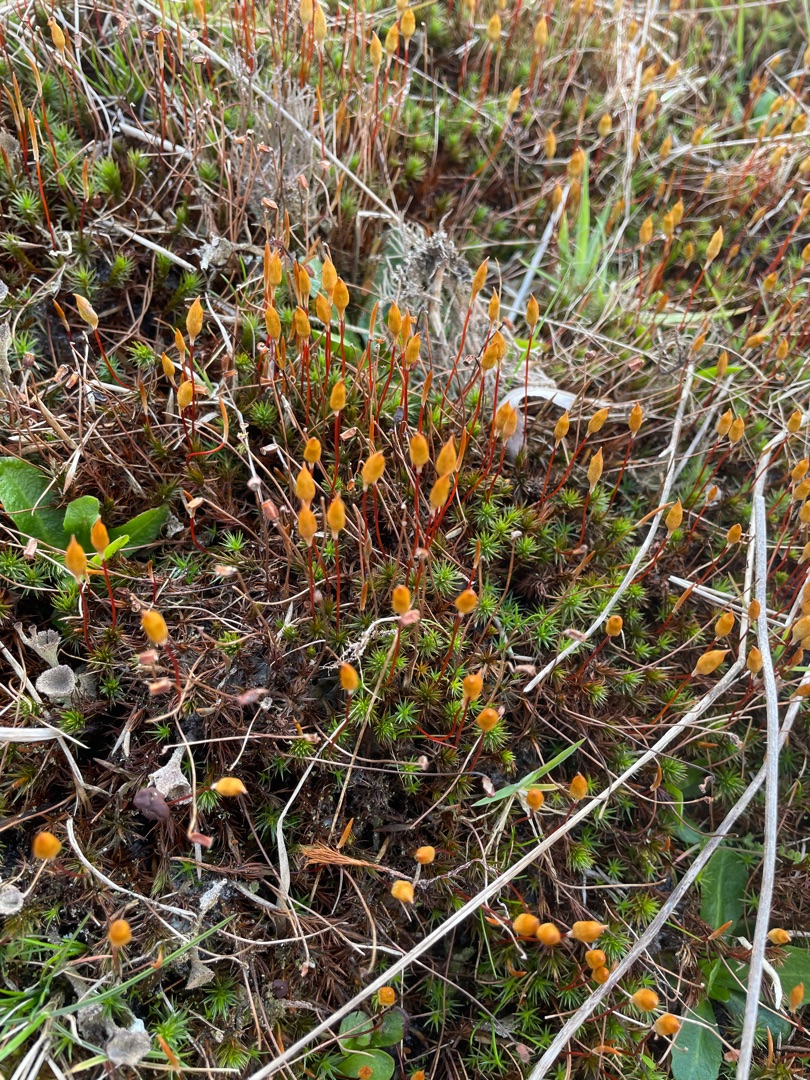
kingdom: Plantae
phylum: Bryophyta
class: Polytrichopsida
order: Polytrichales
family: Polytrichaceae
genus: Polytrichum
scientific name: Polytrichum juniperinum
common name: Ene-jomfruhår
